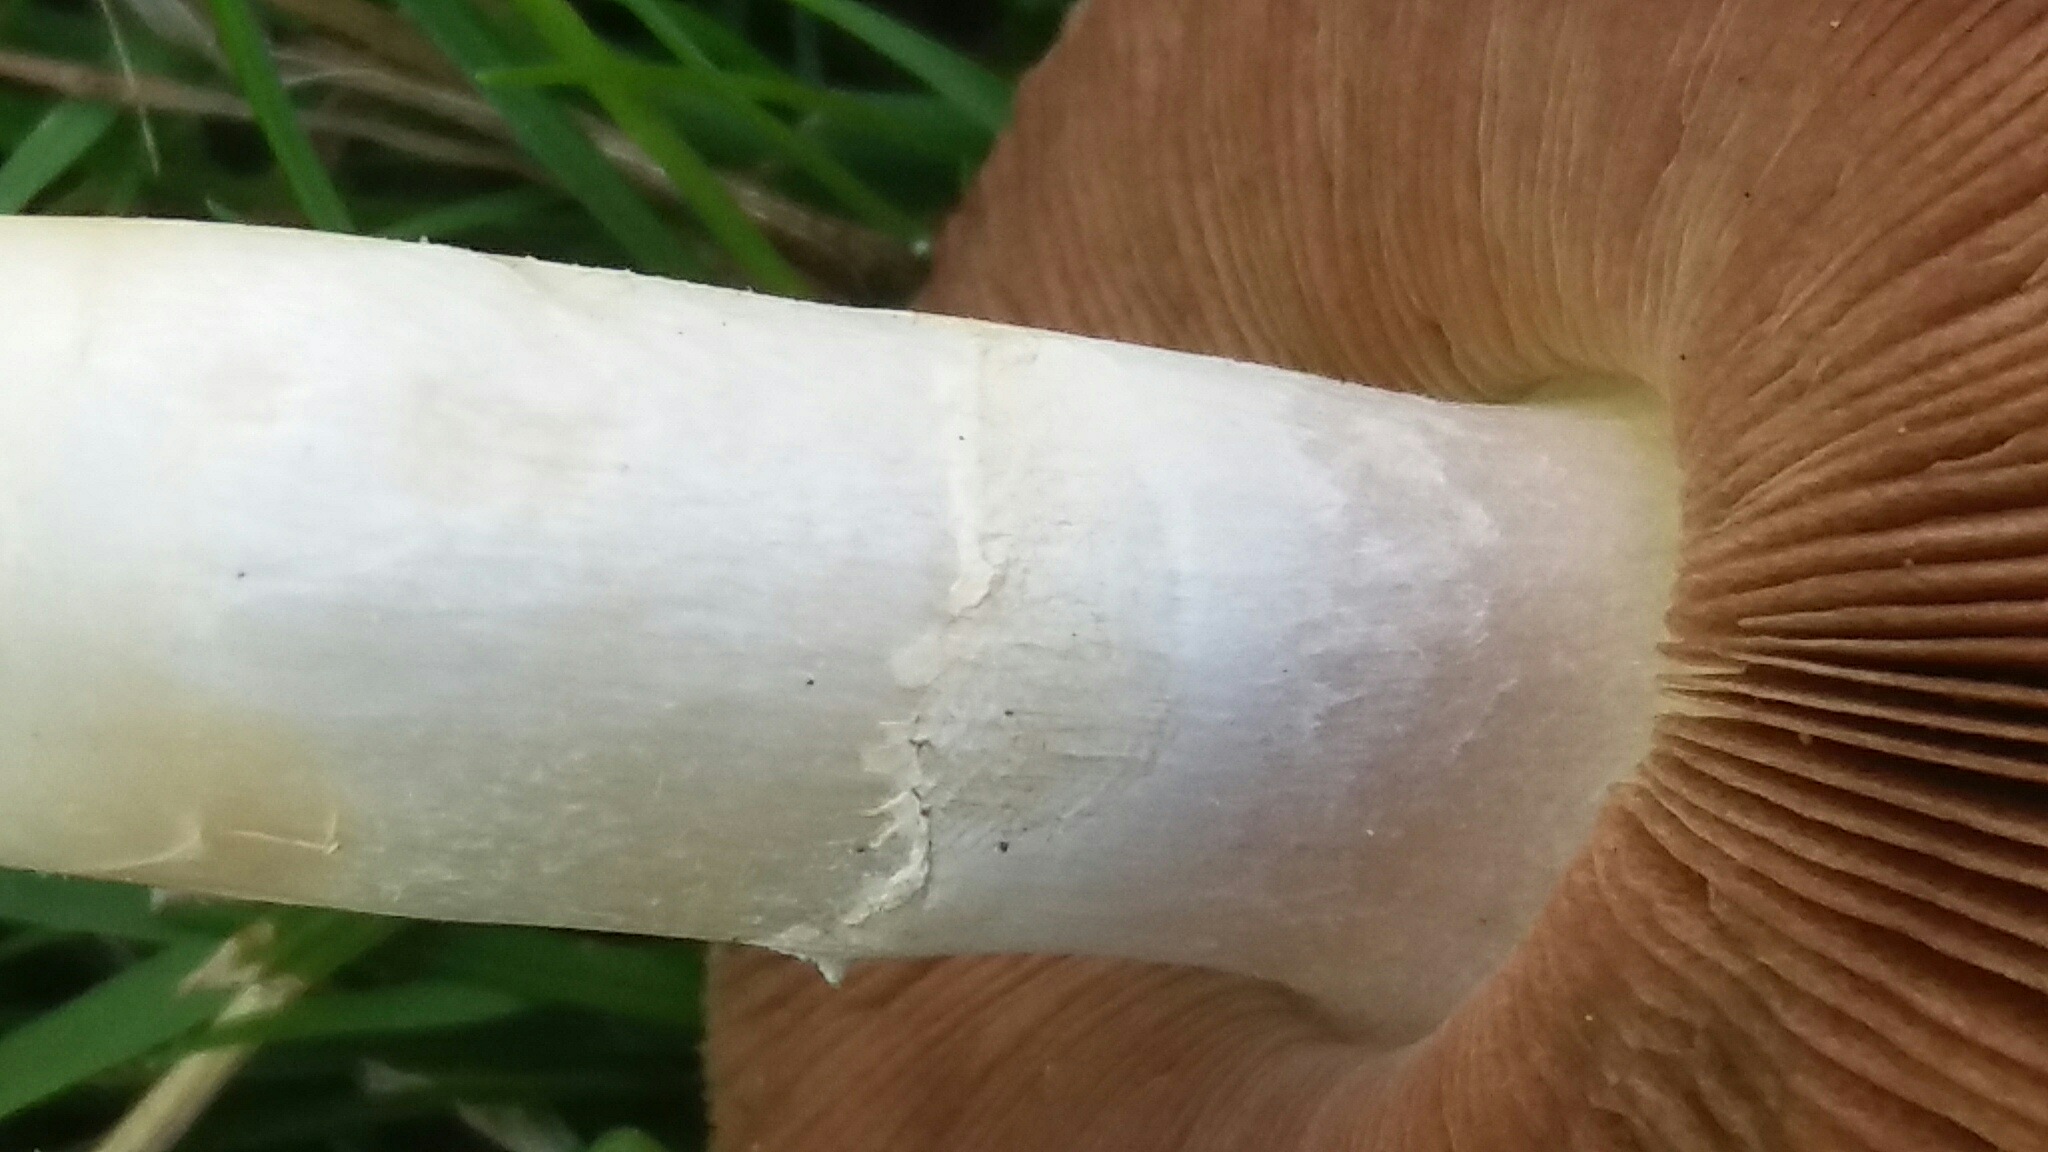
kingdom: Fungi
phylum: Basidiomycota
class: Agaricomycetes
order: Agaricales
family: Agaricaceae
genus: Agaricus
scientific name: Agaricus campestris
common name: mark-champignon
